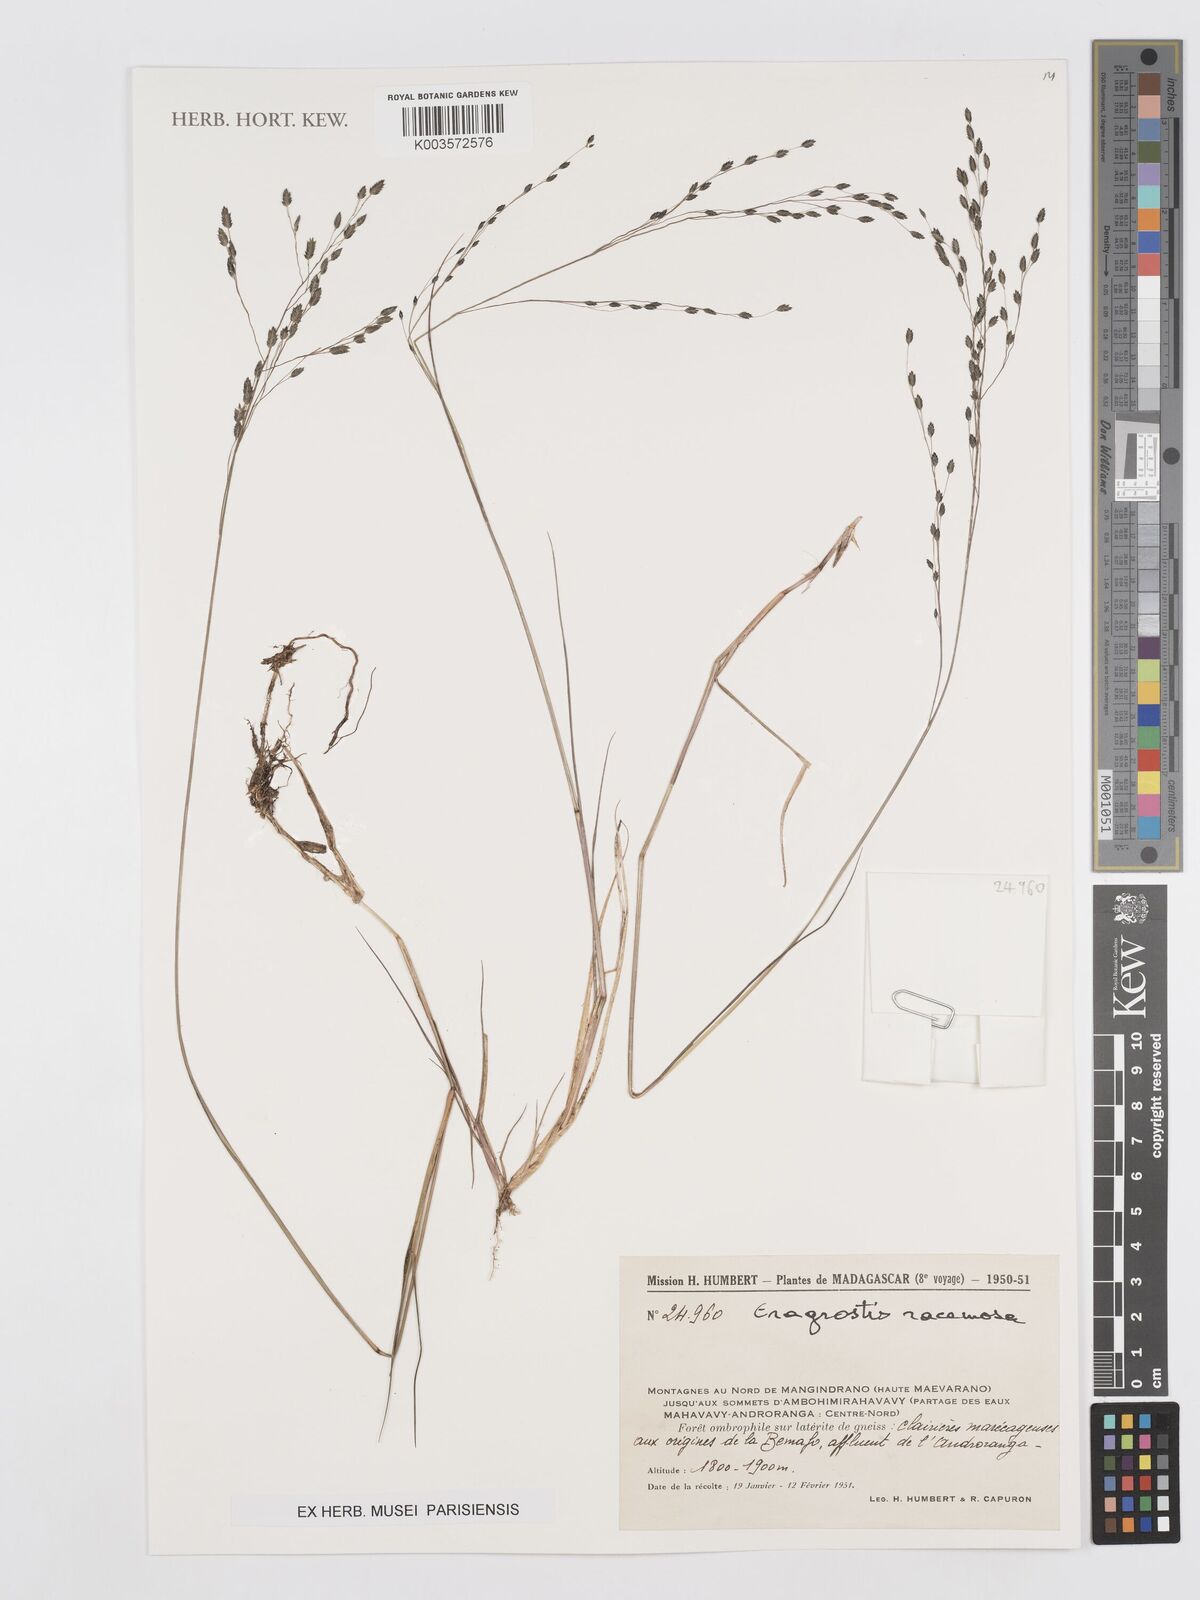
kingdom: Plantae
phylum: Tracheophyta
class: Liliopsida
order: Poales
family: Poaceae
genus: Eragrostis
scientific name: Eragrostis racemosa
